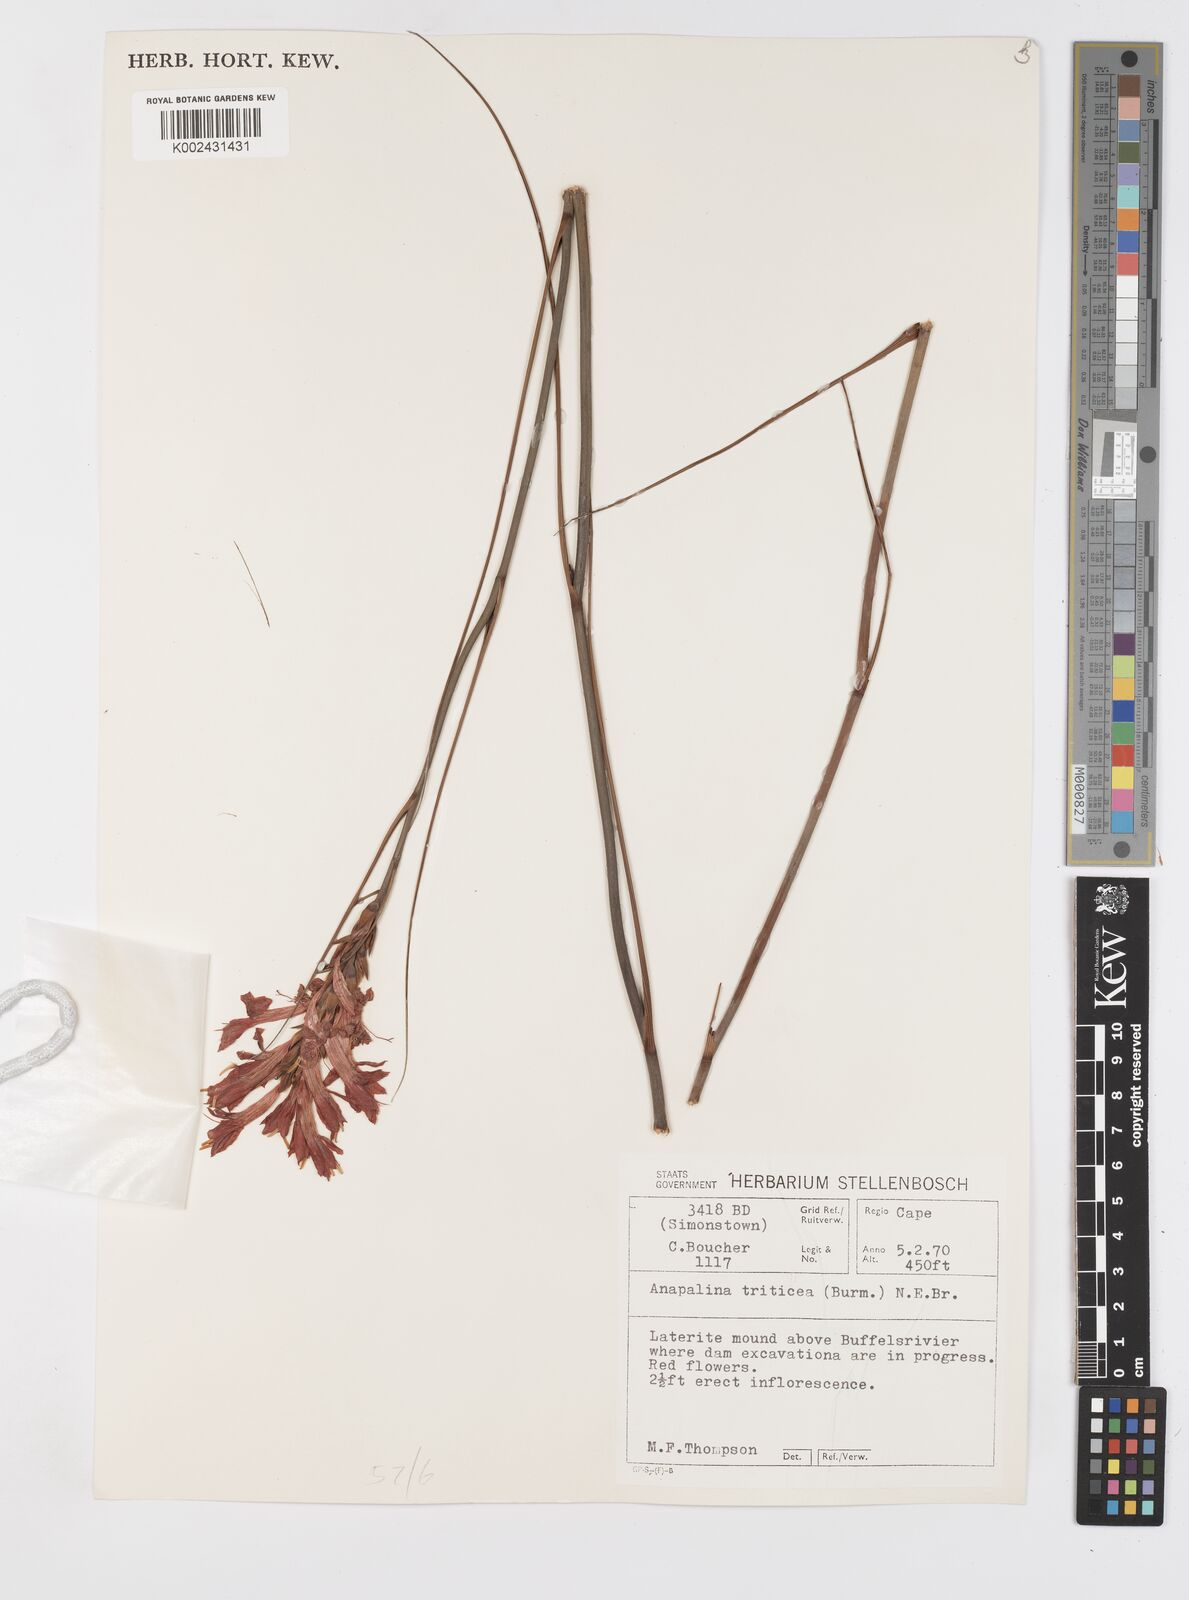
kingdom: Plantae
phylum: Tracheophyta
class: Liliopsida
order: Asparagales
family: Iridaceae
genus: Tritoniopsis
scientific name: Tritoniopsis triticea
